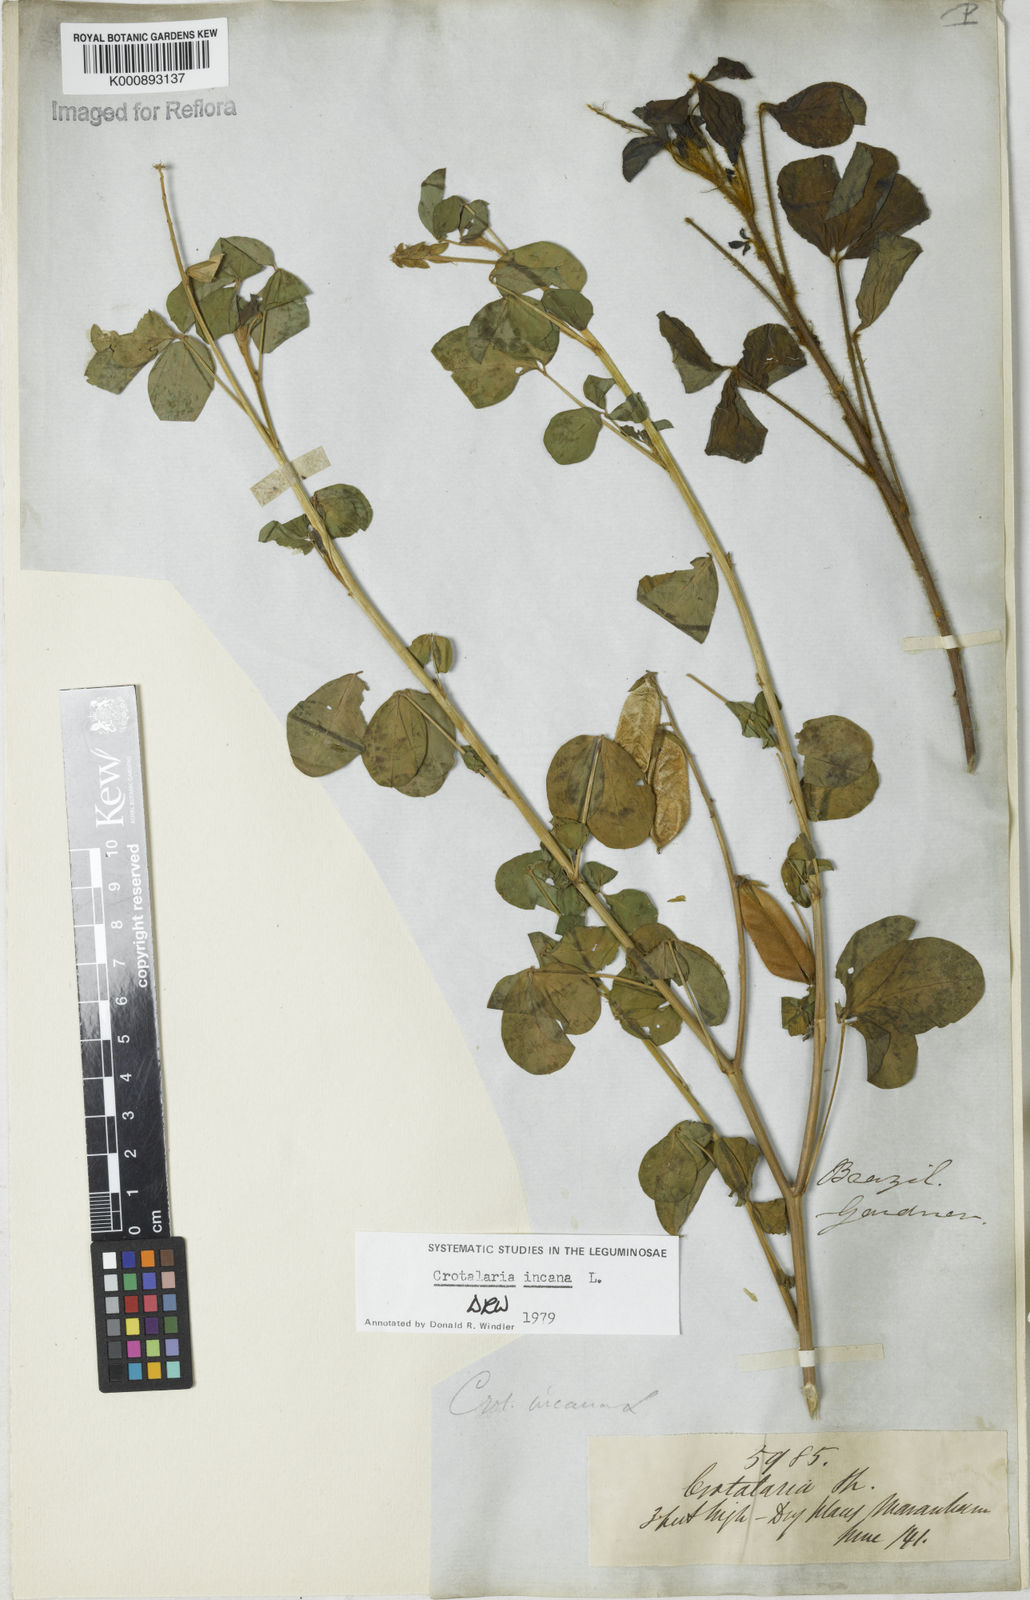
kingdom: Plantae
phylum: Tracheophyta
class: Magnoliopsida
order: Fabales
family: Fabaceae
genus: Crotalaria
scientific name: Crotalaria incana
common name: Shakeshake
